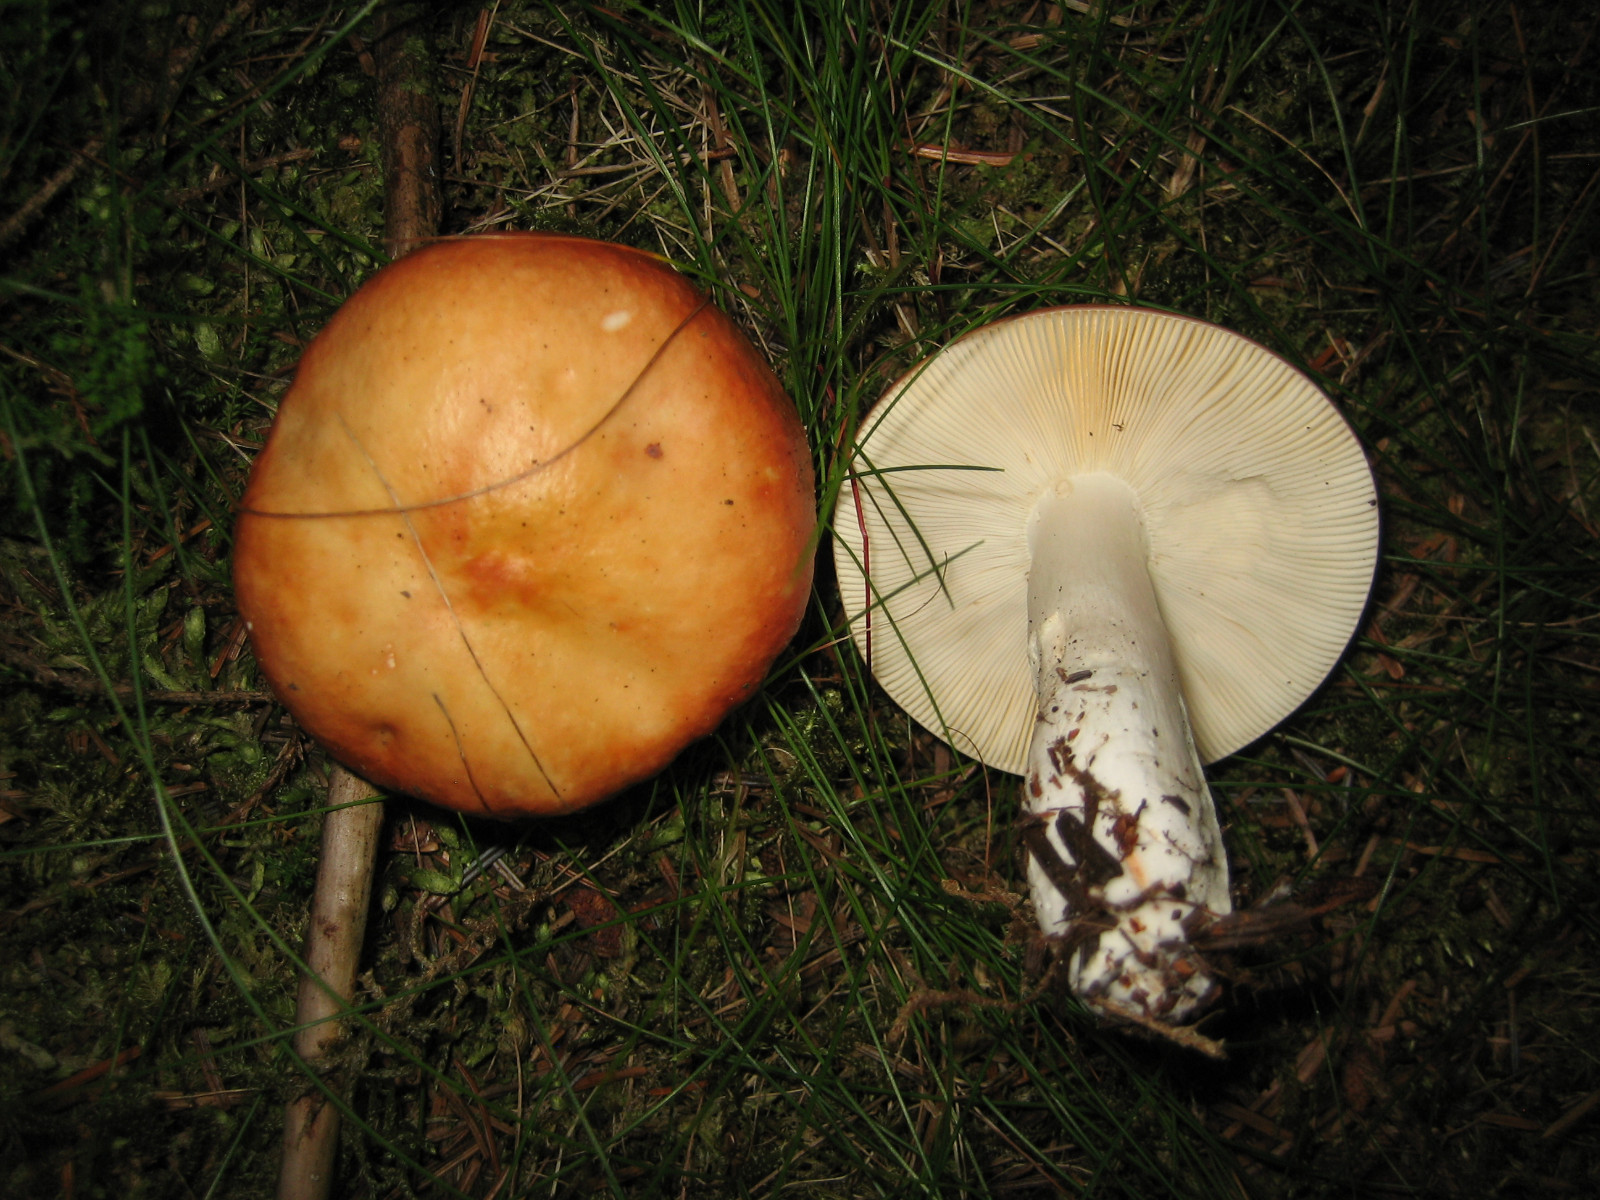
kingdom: Fungi
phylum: Basidiomycota
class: Agaricomycetes
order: Russulales
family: Russulaceae
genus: Russula
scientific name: Russula paludosa
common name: prægtig skørhat
